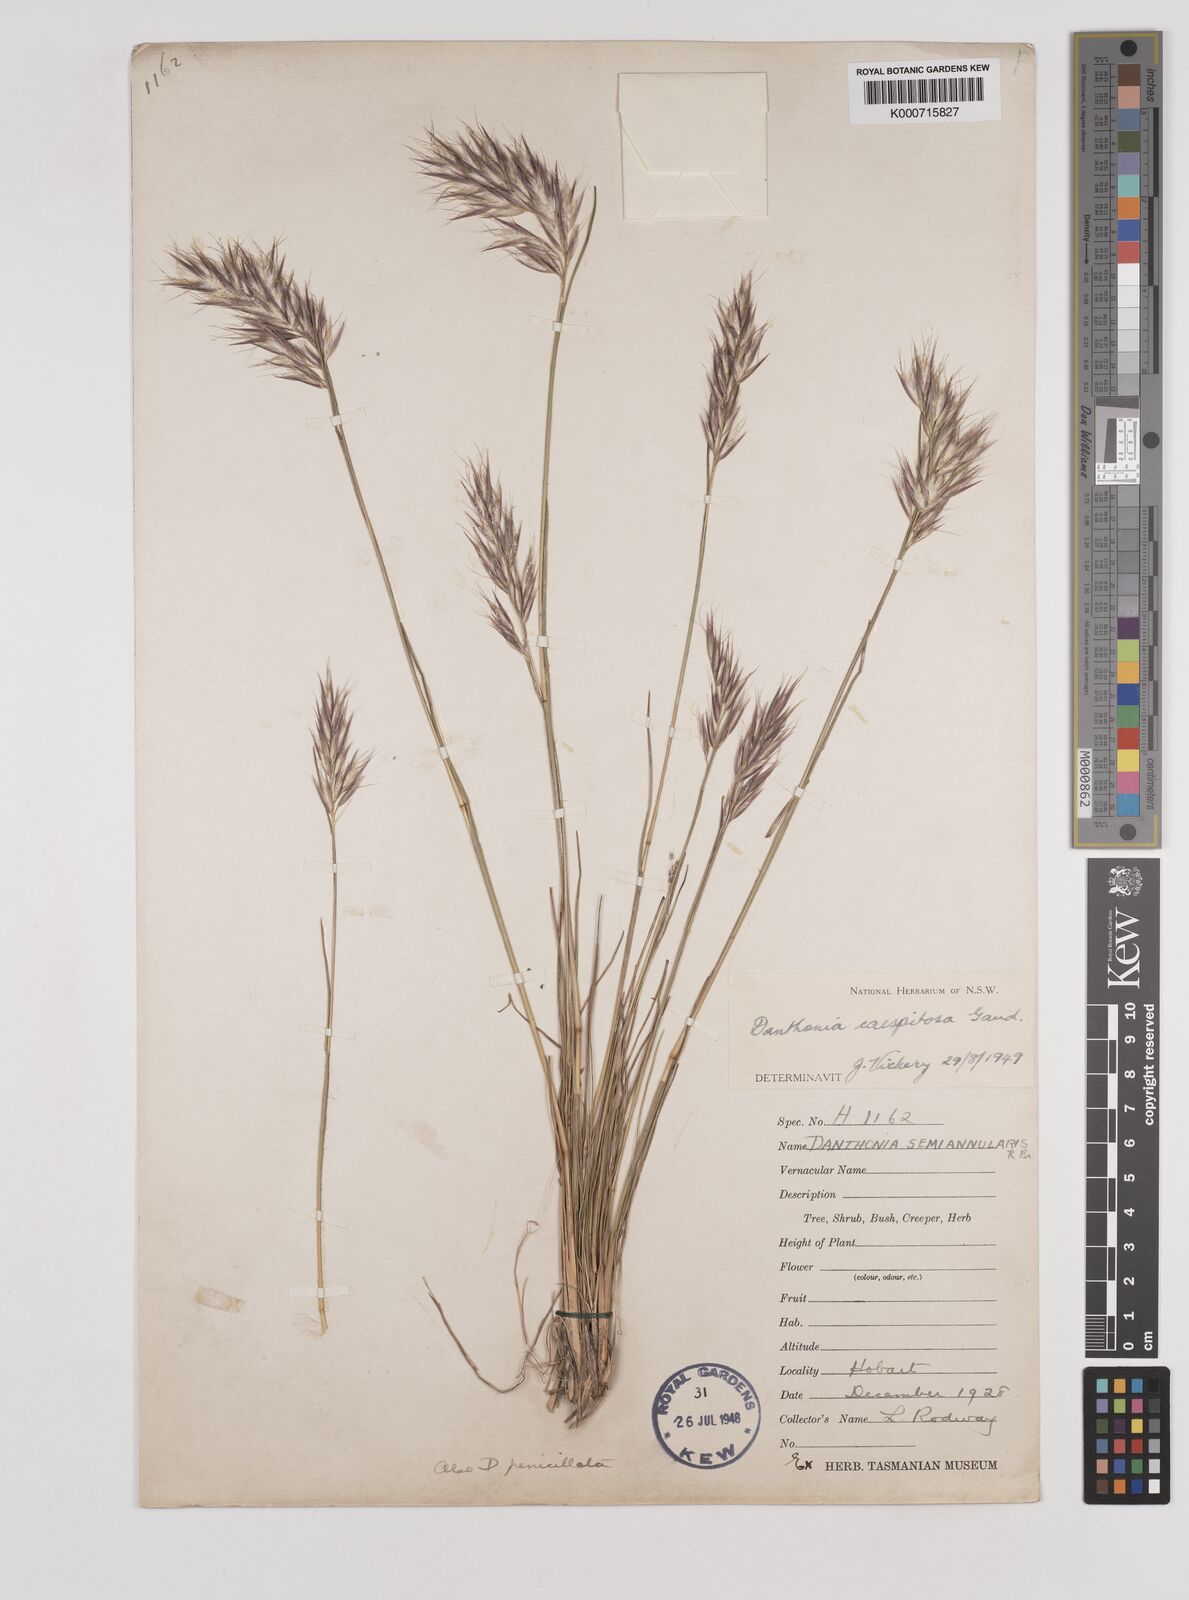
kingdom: Plantae
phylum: Tracheophyta
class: Liliopsida
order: Poales
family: Poaceae
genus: Rytidosperma
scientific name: Rytidosperma caespitosum
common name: Tufted wallaby grass
